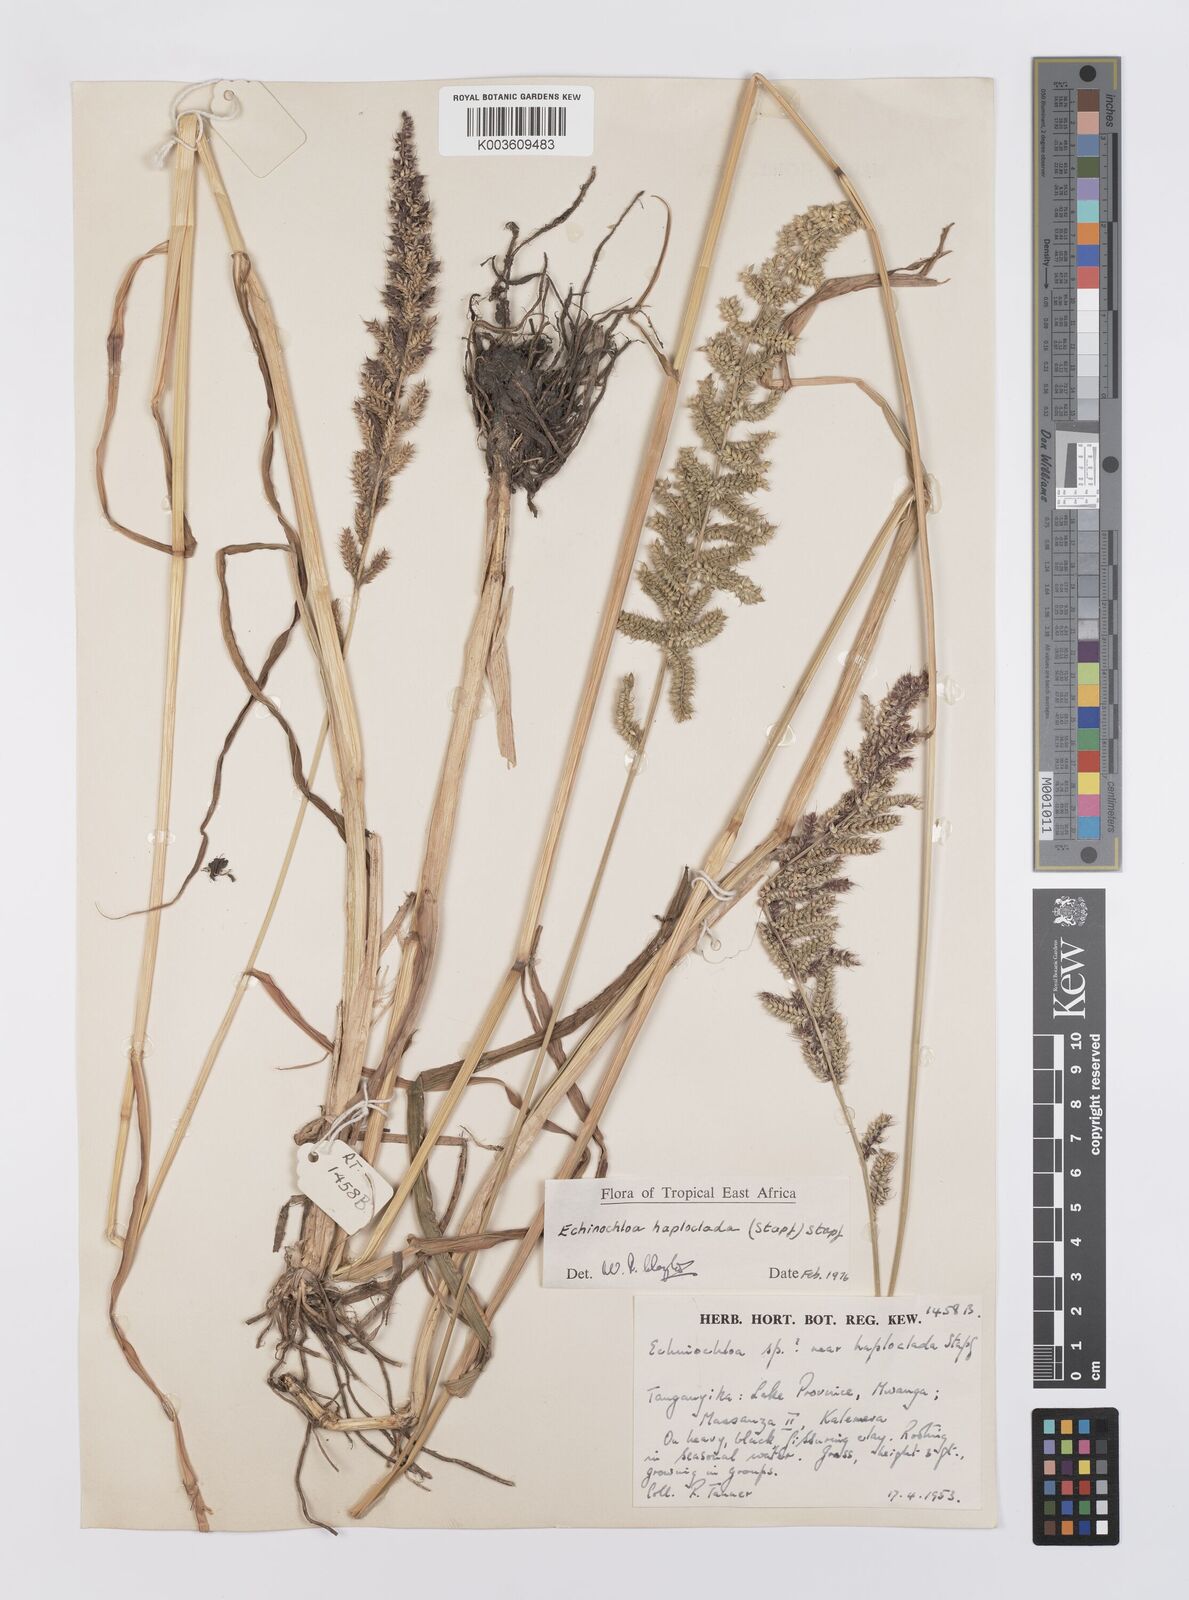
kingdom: Plantae
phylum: Tracheophyta
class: Liliopsida
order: Poales
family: Poaceae
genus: Echinochloa
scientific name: Echinochloa haploclada
